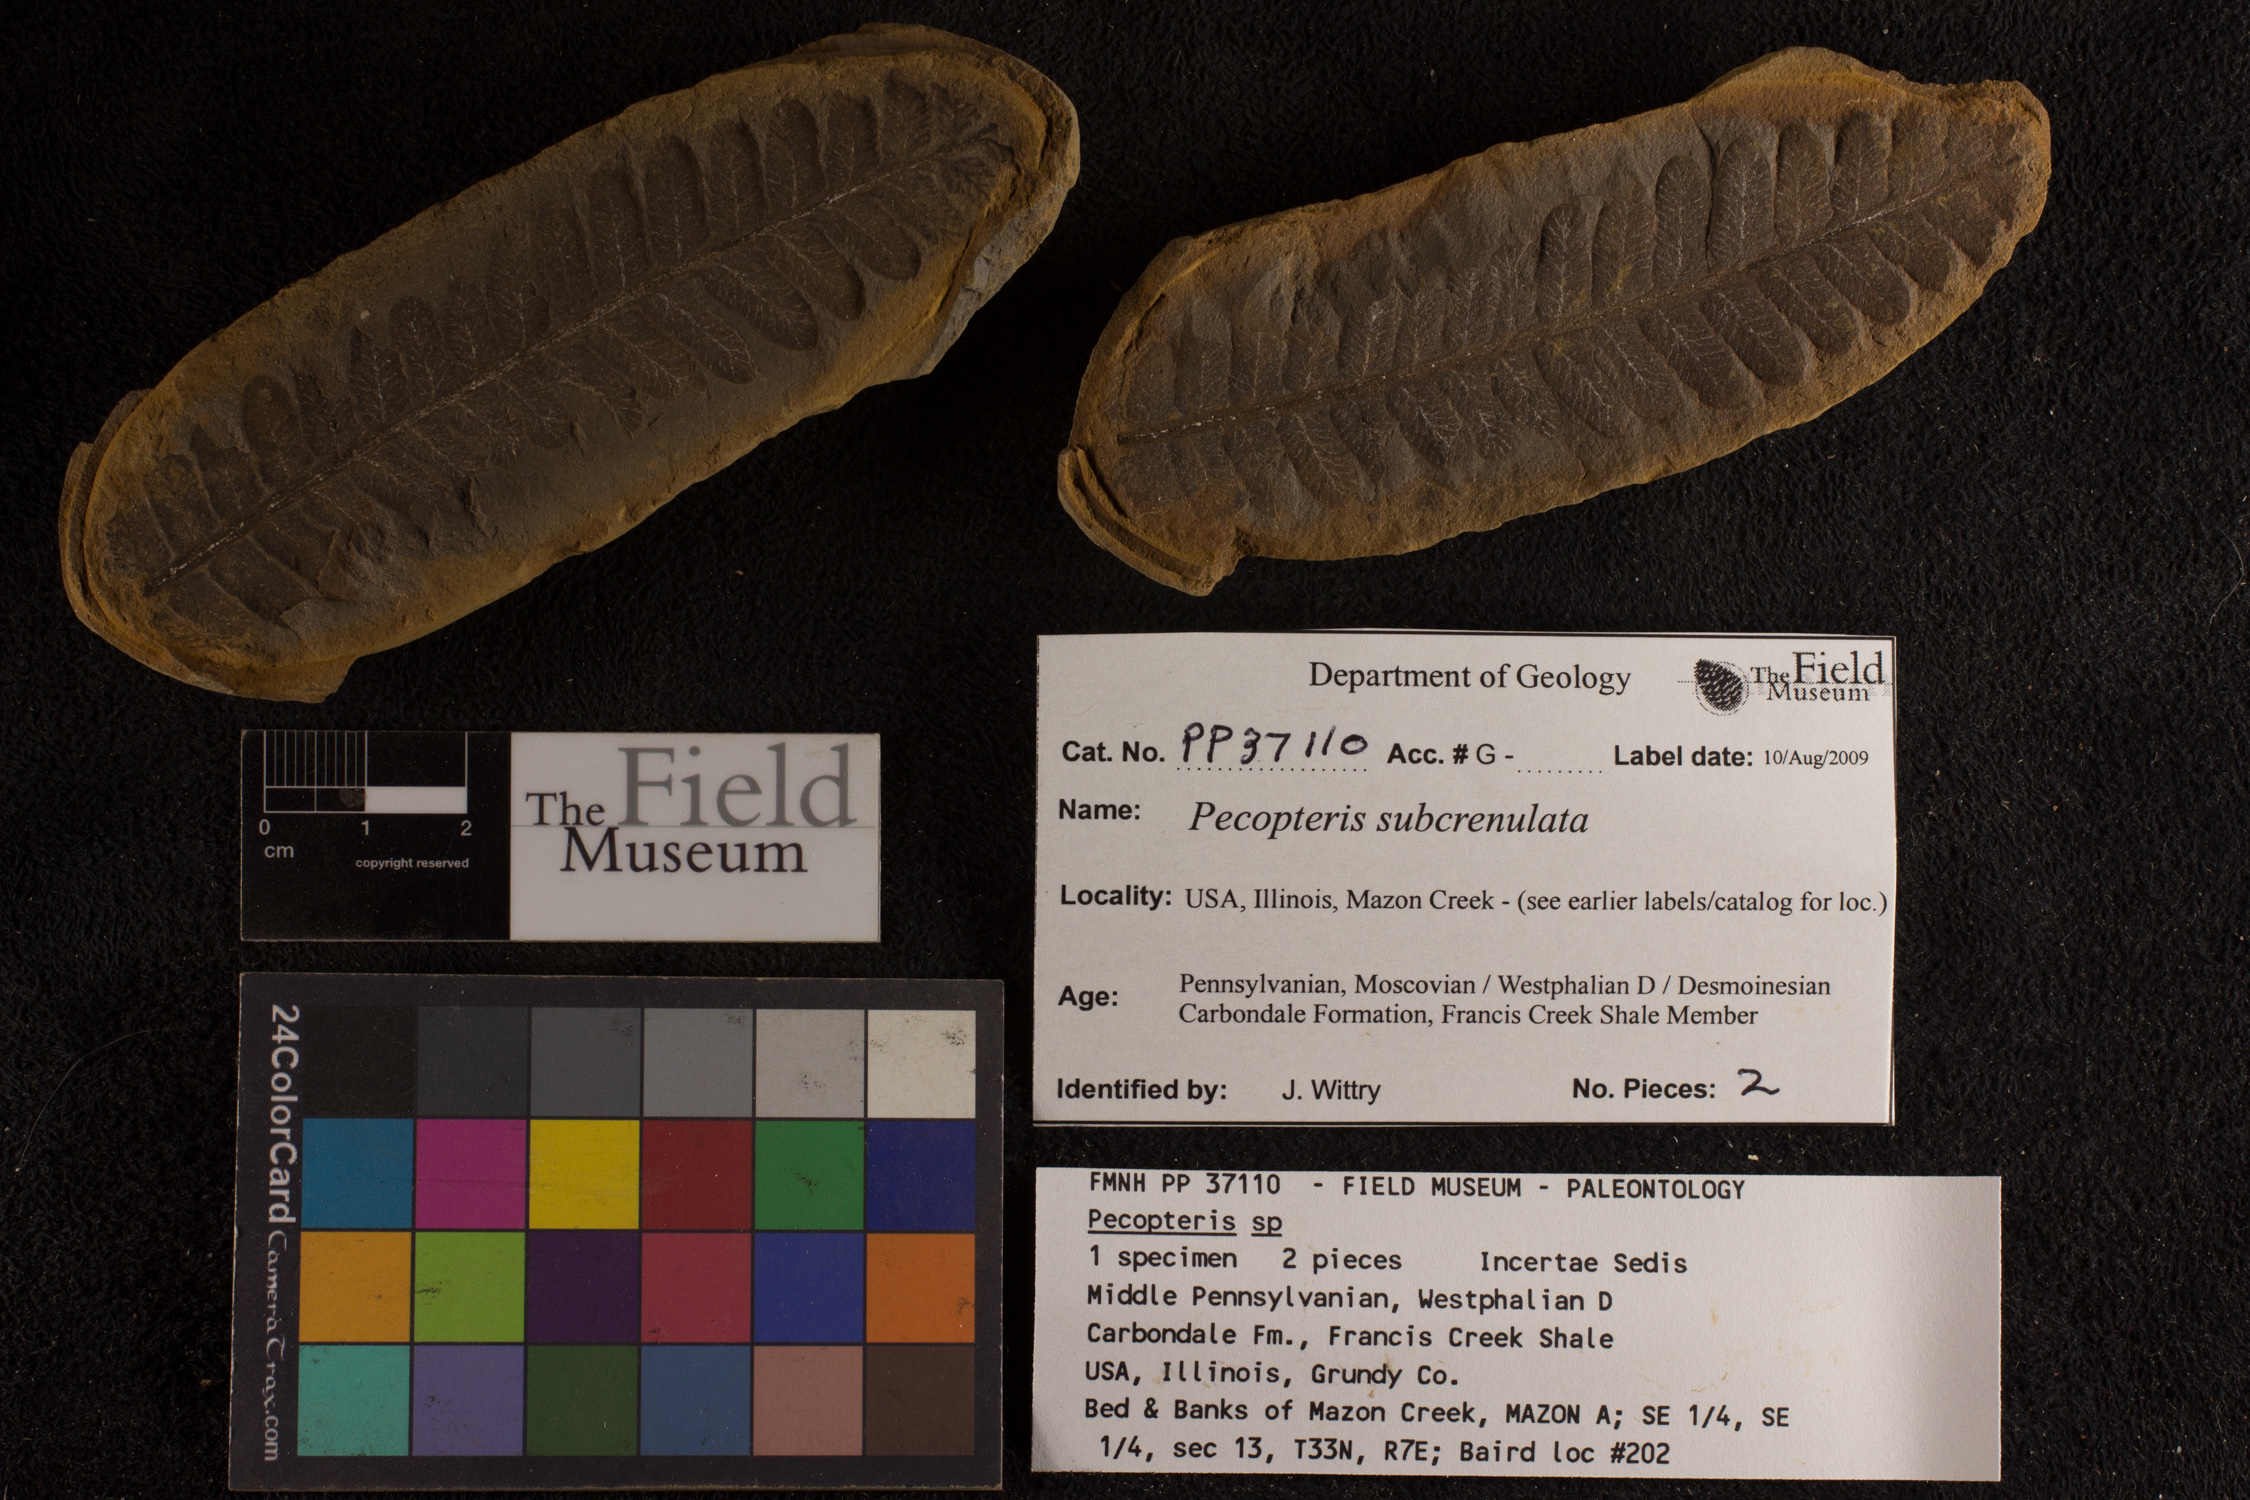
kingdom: Plantae
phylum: Tracheophyta
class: Polypodiopsida
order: Marattiales
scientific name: Marattiales
